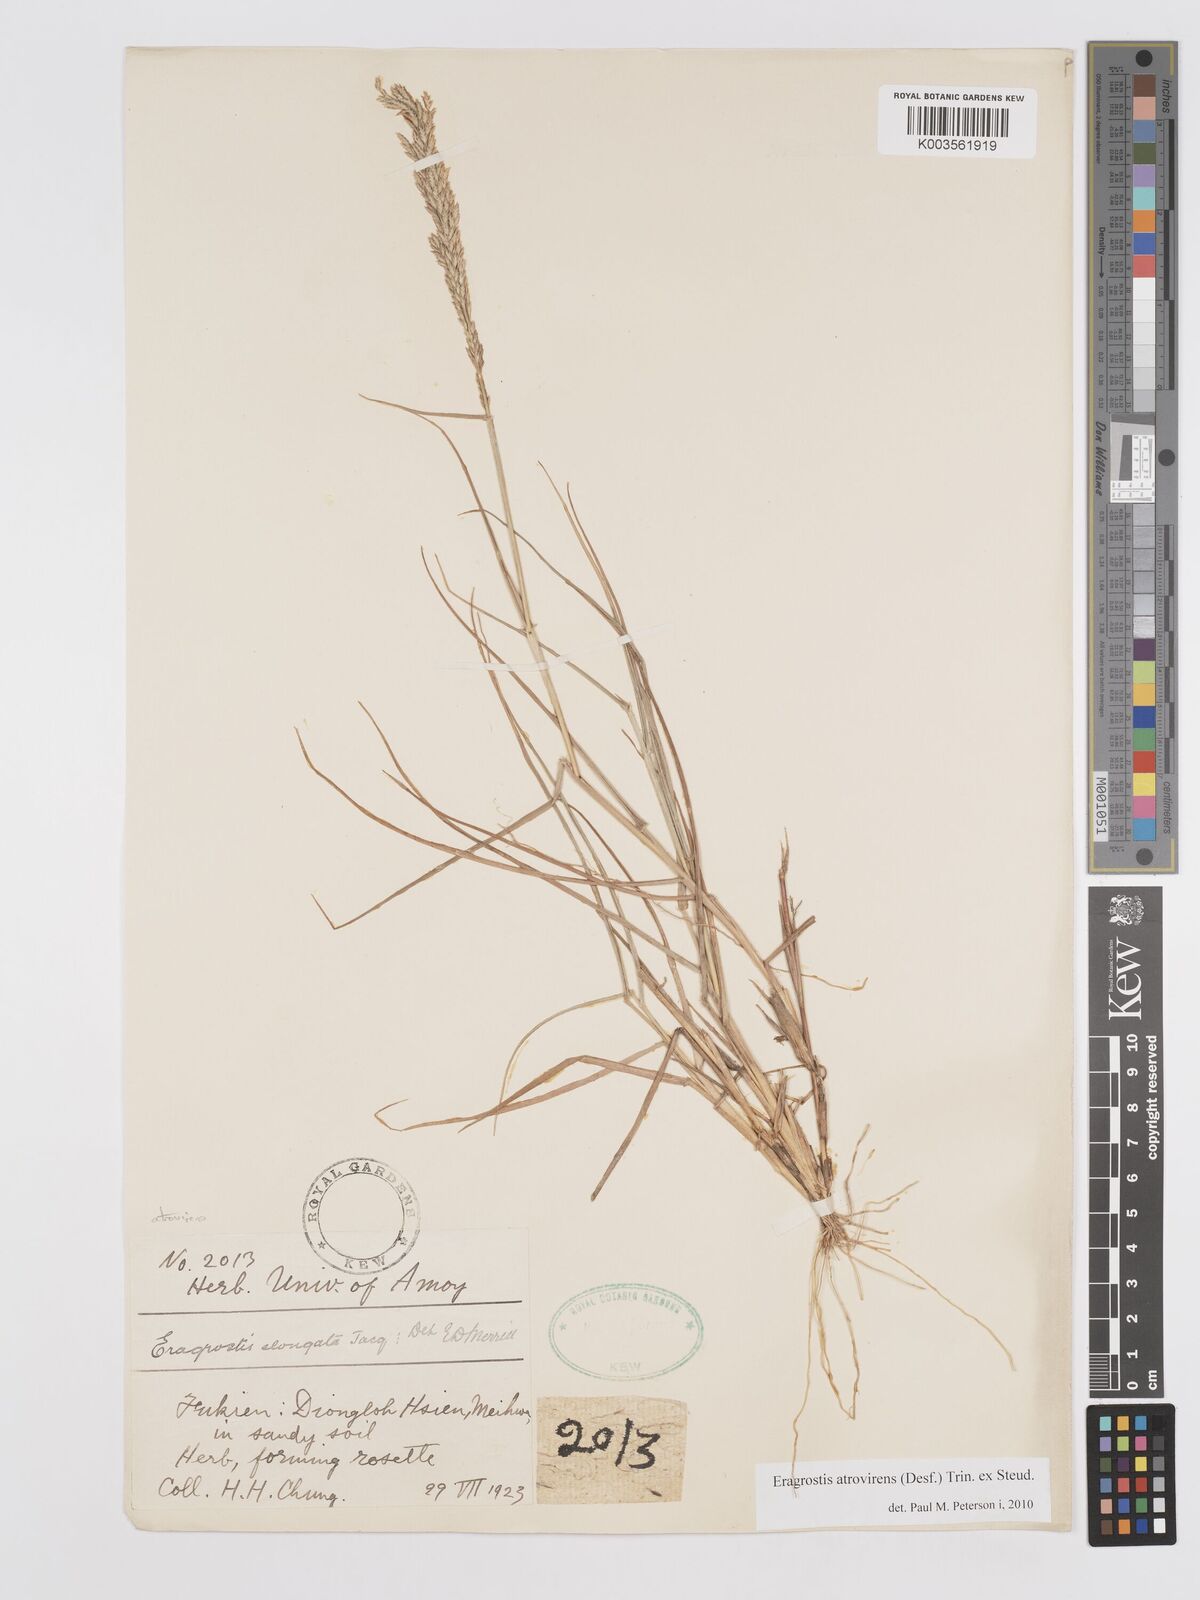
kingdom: Plantae
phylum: Tracheophyta
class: Liliopsida
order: Poales
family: Poaceae
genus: Eragrostis
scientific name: Eragrostis atrovirens
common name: Thalia lovegrass
